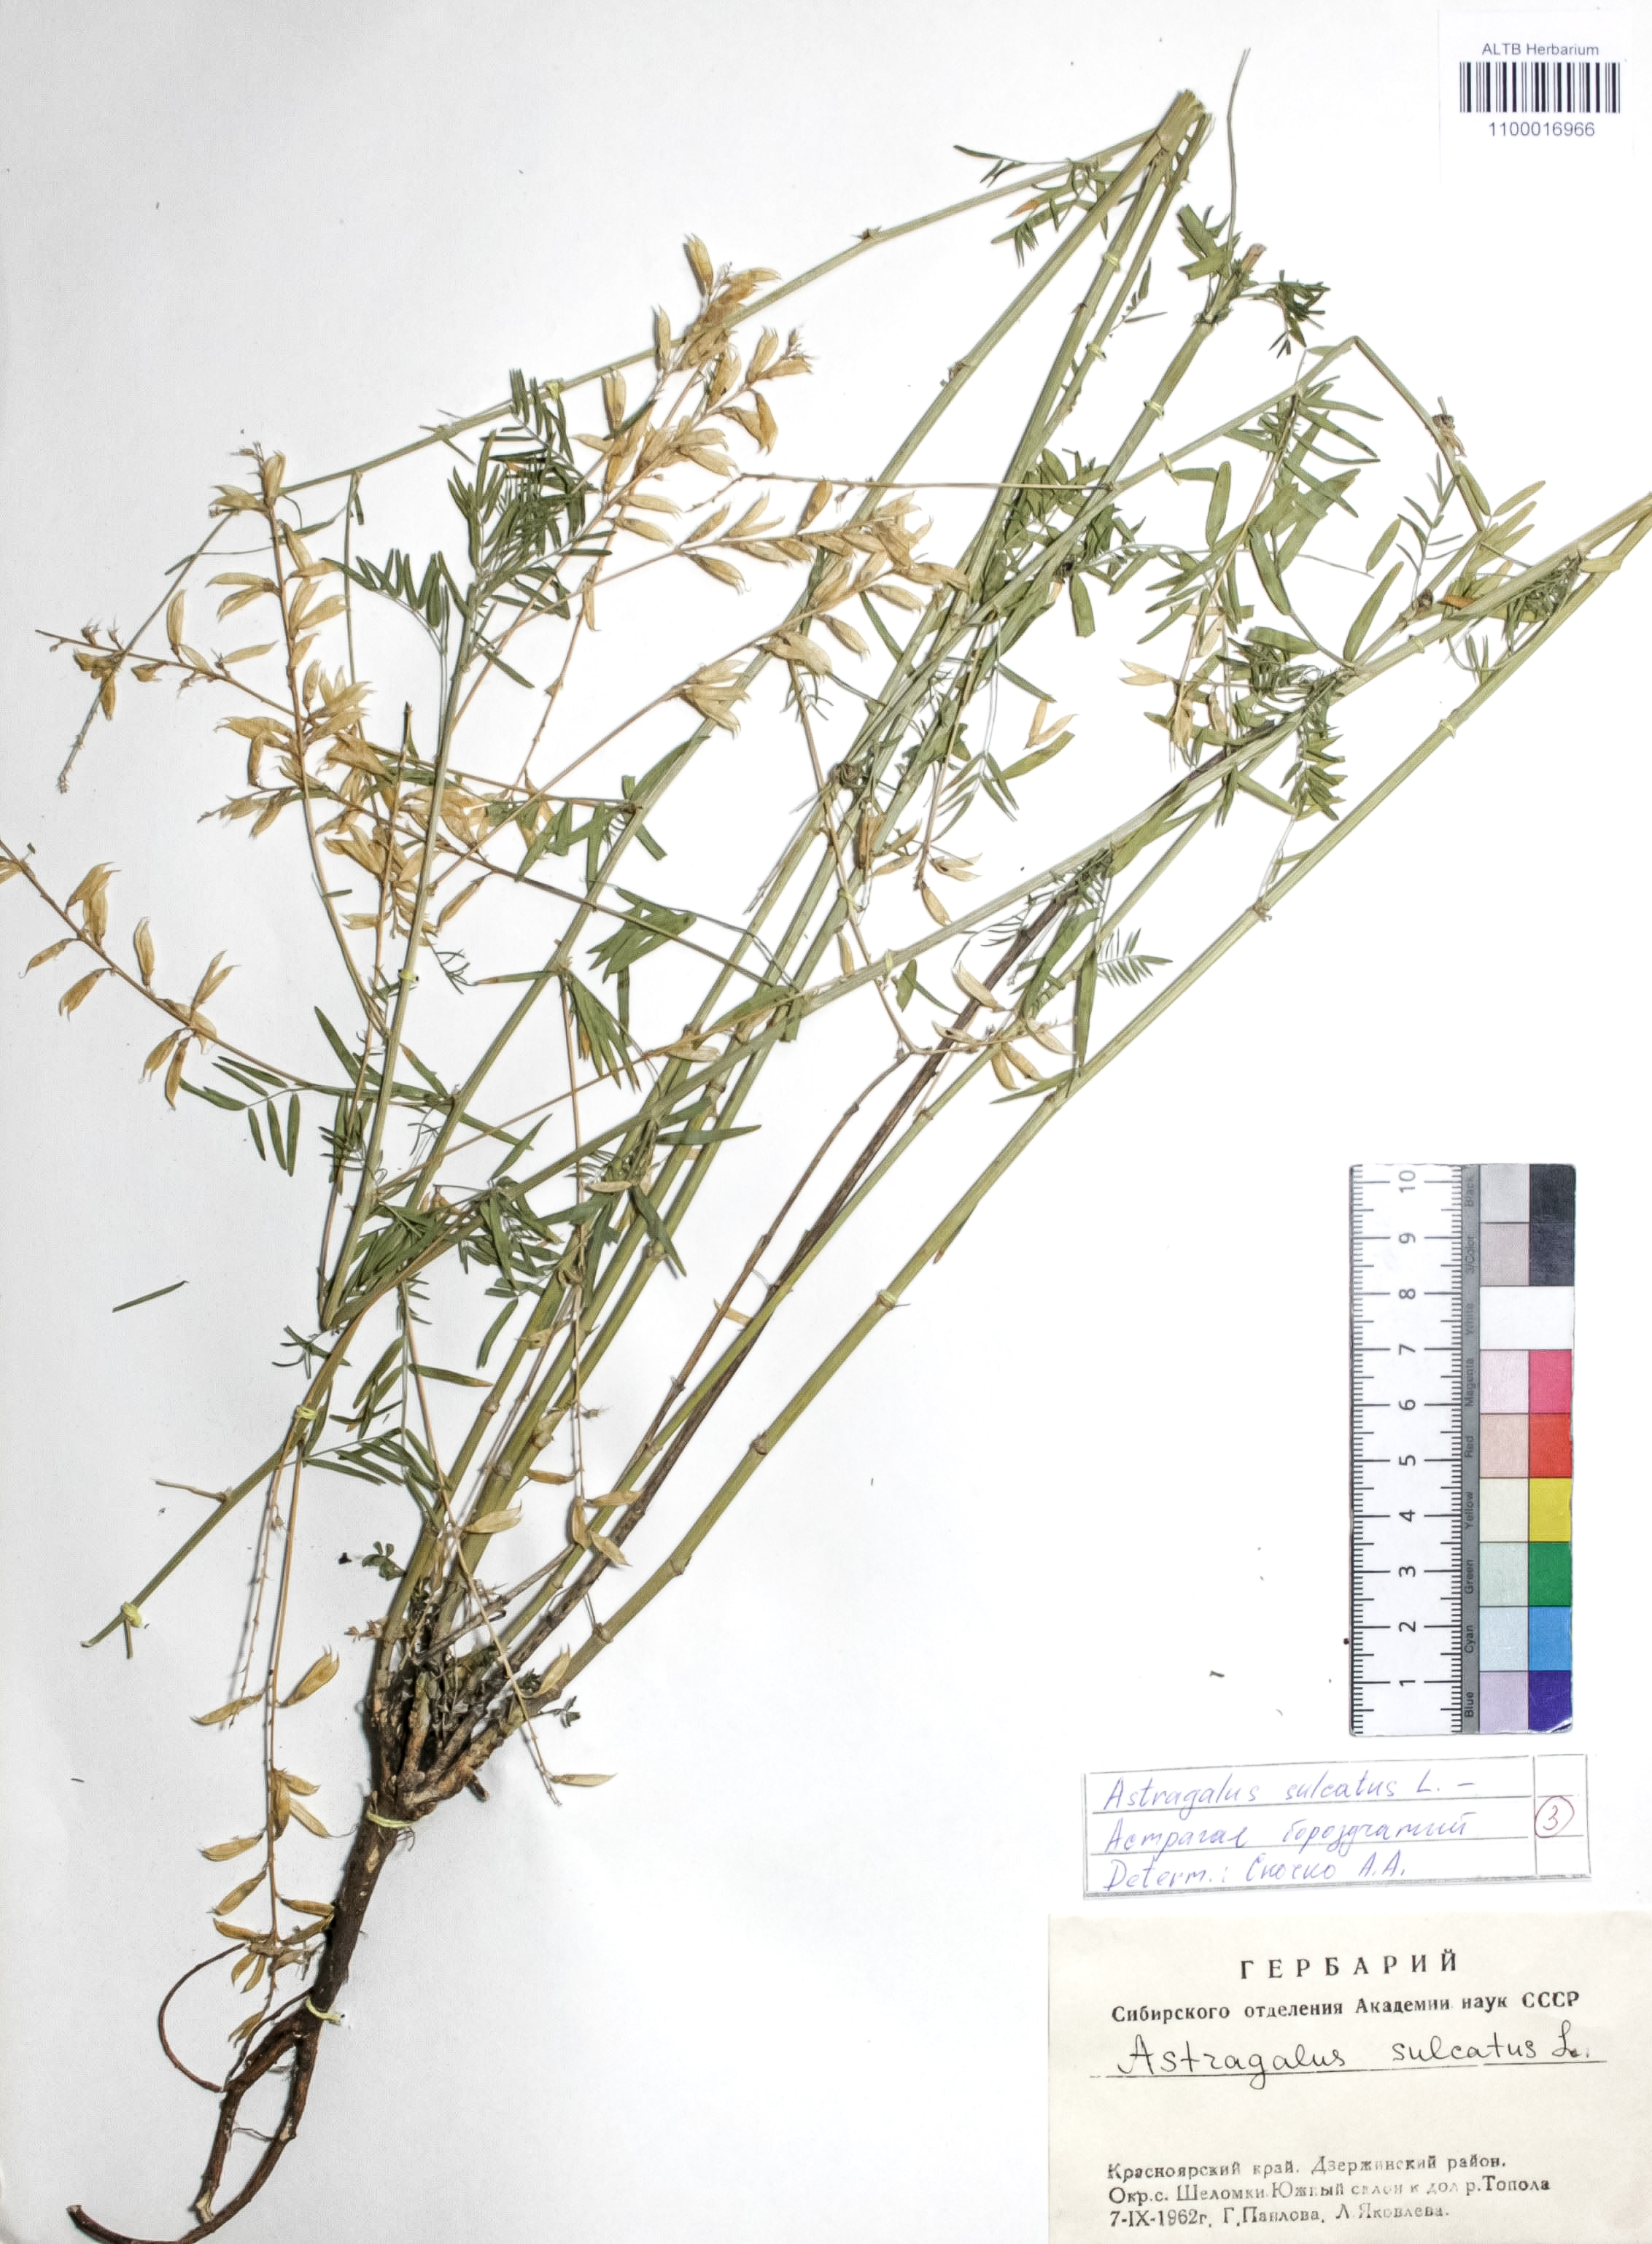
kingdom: Plantae
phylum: Tracheophyta
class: Magnoliopsida
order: Fabales
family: Fabaceae
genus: Astragalus
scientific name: Astragalus sulcatus
